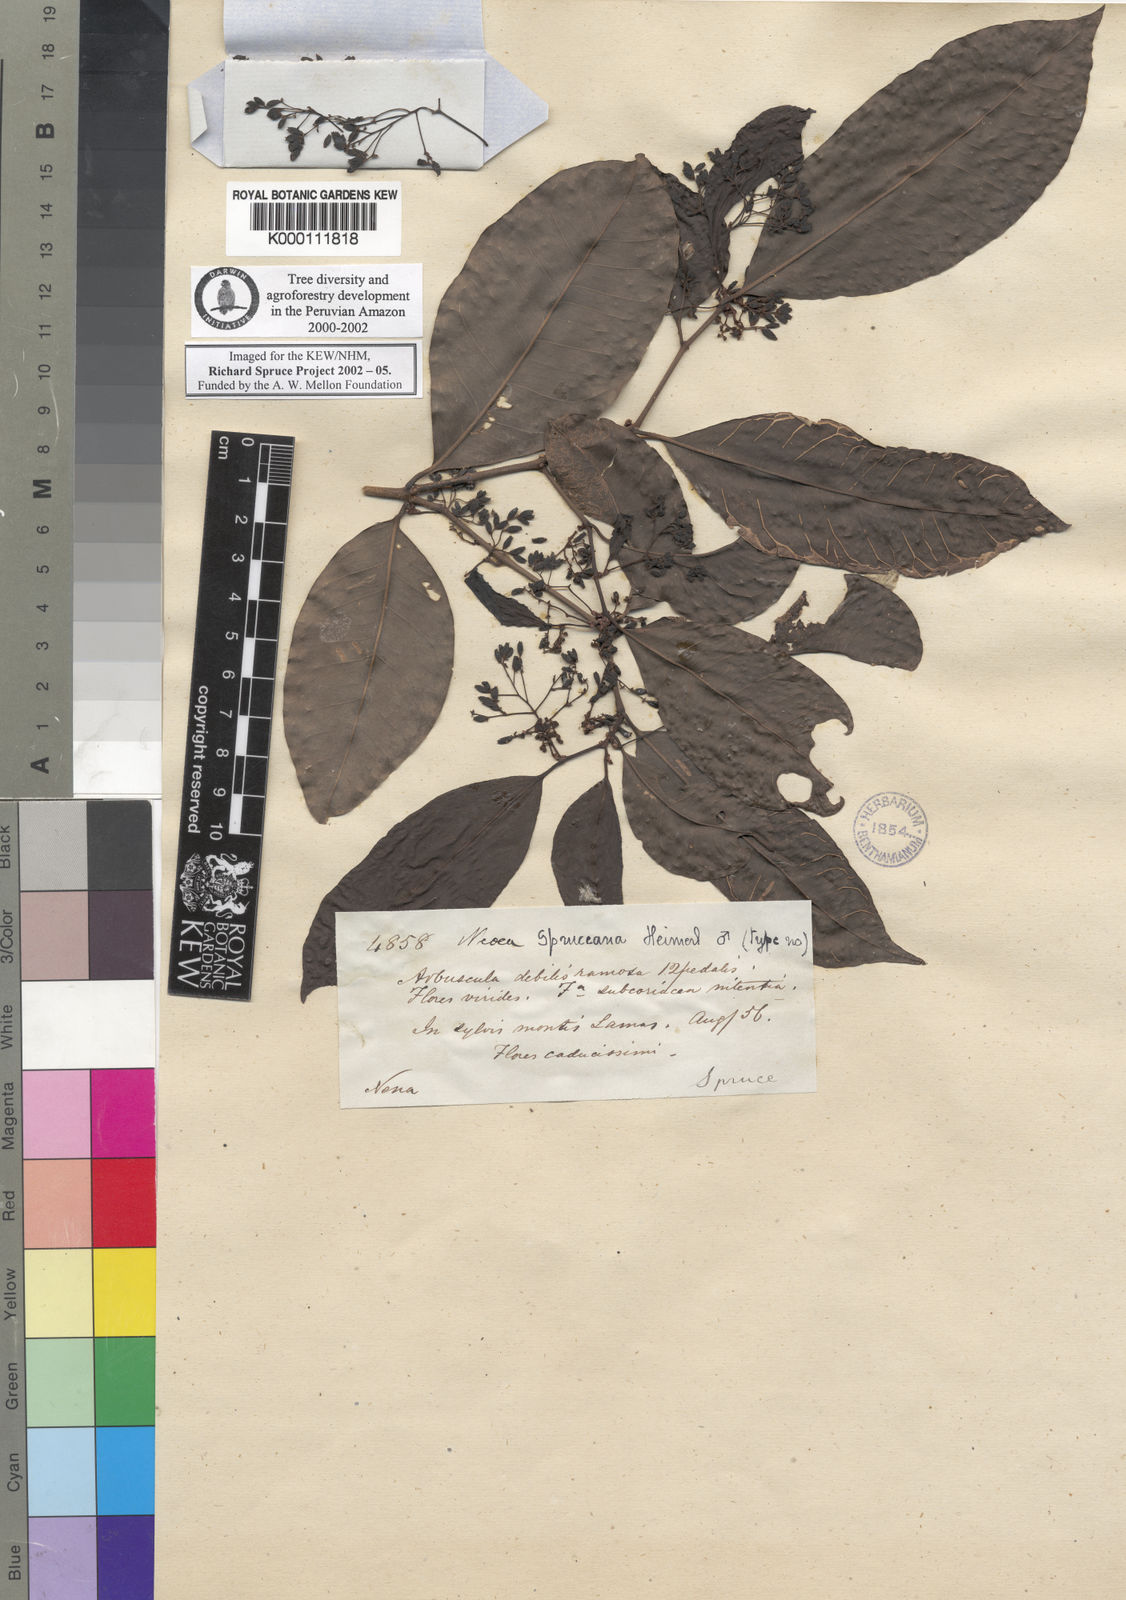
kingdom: Plantae
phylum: Tracheophyta
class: Magnoliopsida
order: Caryophyllales
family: Nyctaginaceae
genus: Neea
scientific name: Neea spruceana
